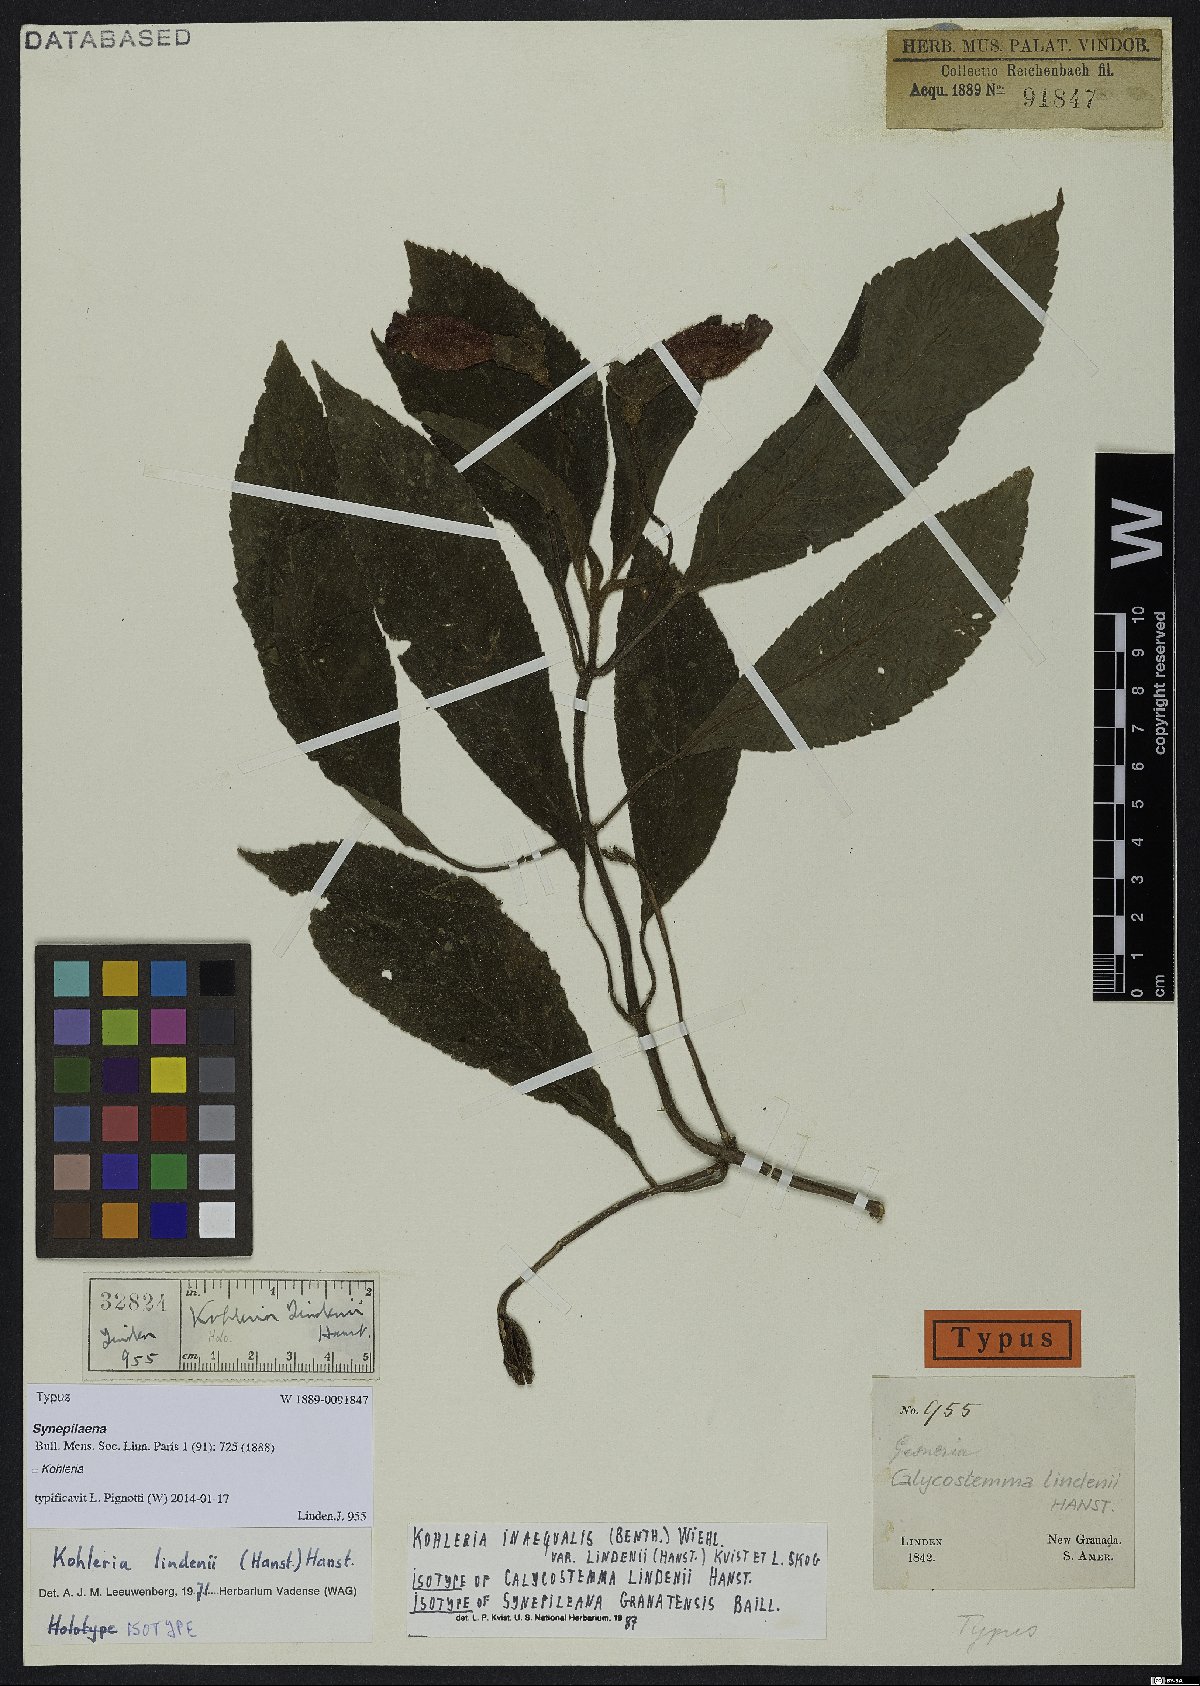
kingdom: Plantae
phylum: Tracheophyta
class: Magnoliopsida
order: Lamiales
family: Gesneriaceae
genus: Kohleria
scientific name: Kohleria inaequalis
